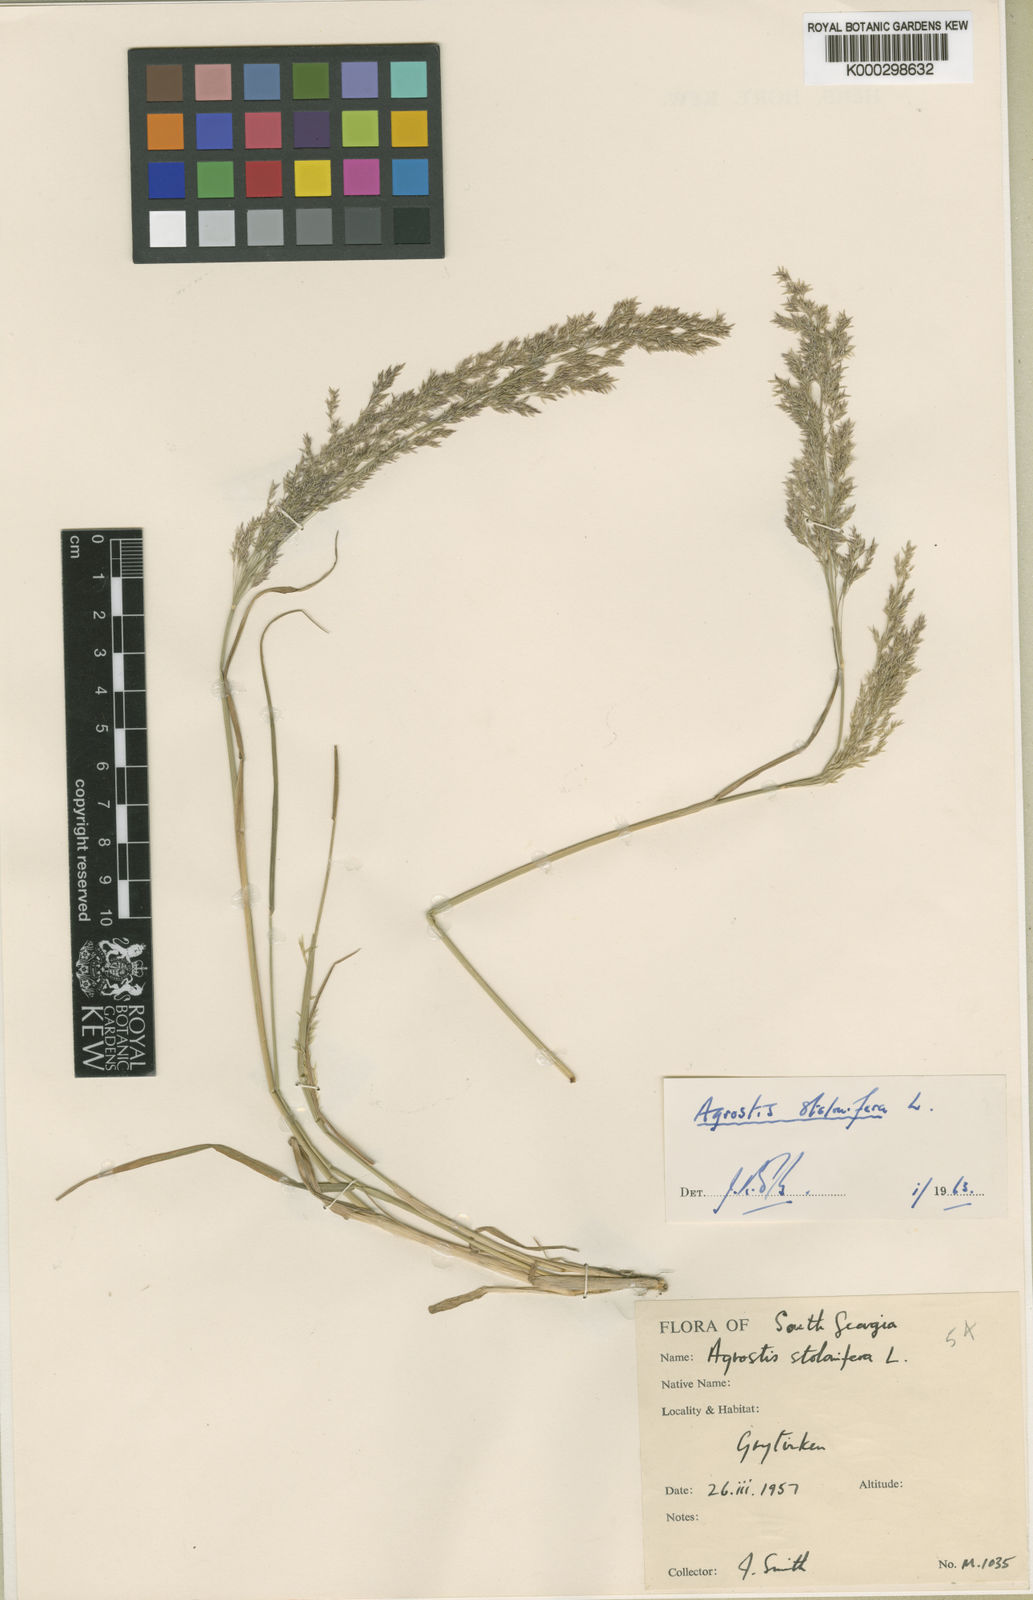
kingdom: Plantae
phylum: Tracheophyta
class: Liliopsida
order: Poales
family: Poaceae
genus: Agrostis
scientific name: Agrostis stolonifera
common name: Creeping bentgrass
